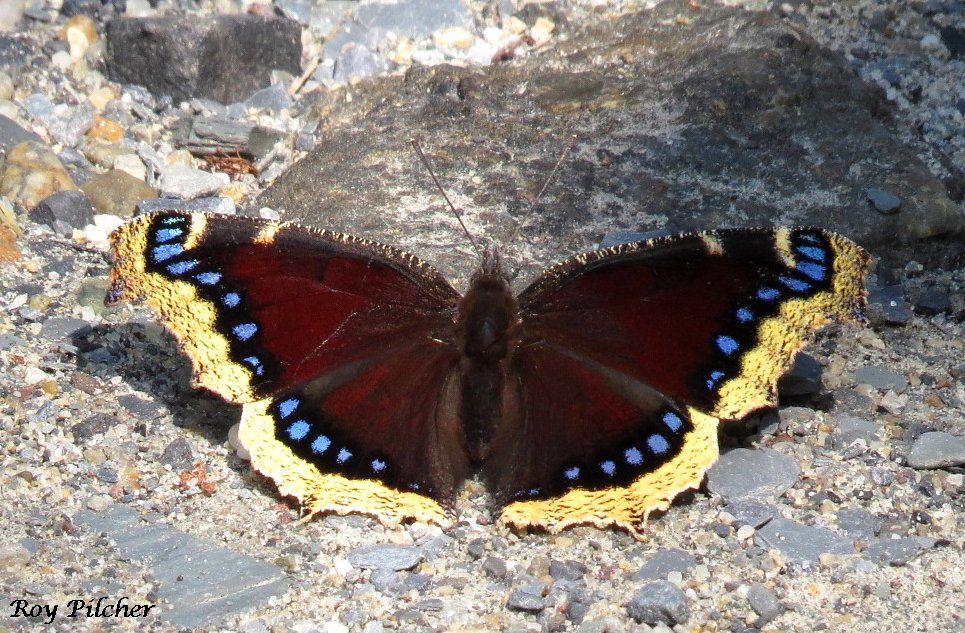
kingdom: Animalia
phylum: Arthropoda
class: Insecta
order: Lepidoptera
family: Nymphalidae
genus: Nymphalis
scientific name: Nymphalis antiopa
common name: Mourning Cloak
